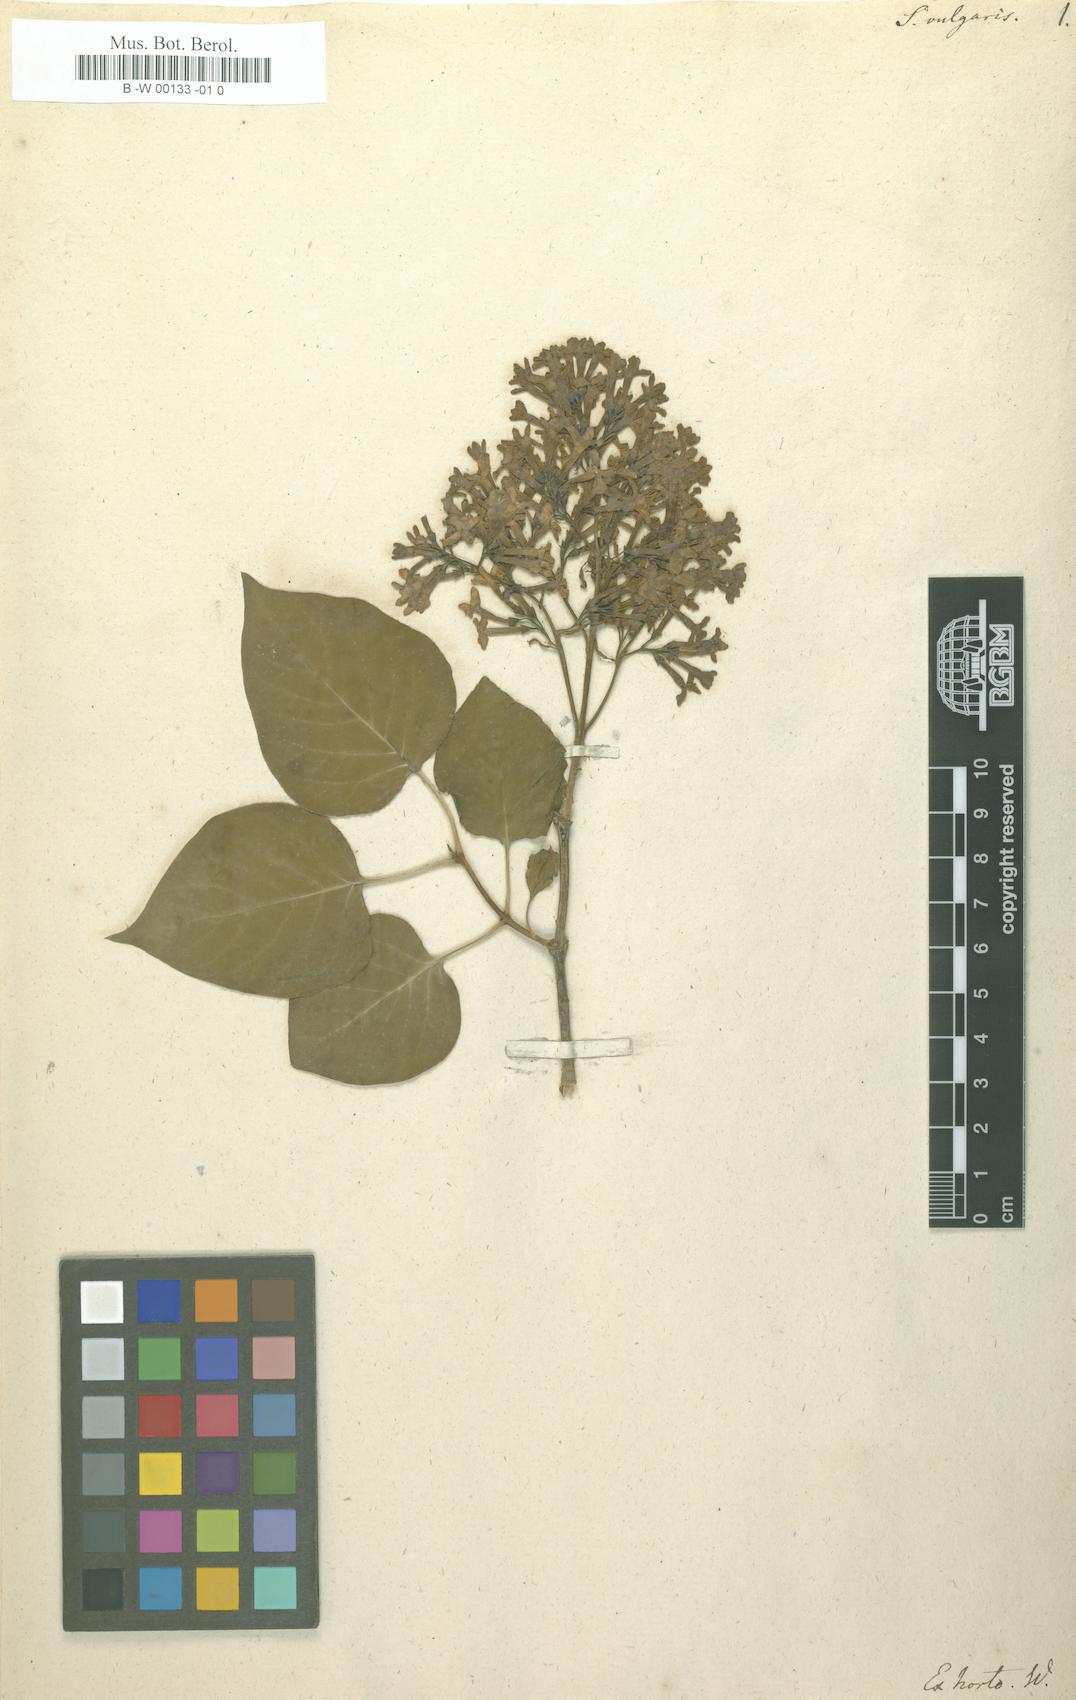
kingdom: Plantae
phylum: Tracheophyta
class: Magnoliopsida
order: Lamiales
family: Oleaceae
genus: Syringa
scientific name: Syringa vulgaris
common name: Common lilac
